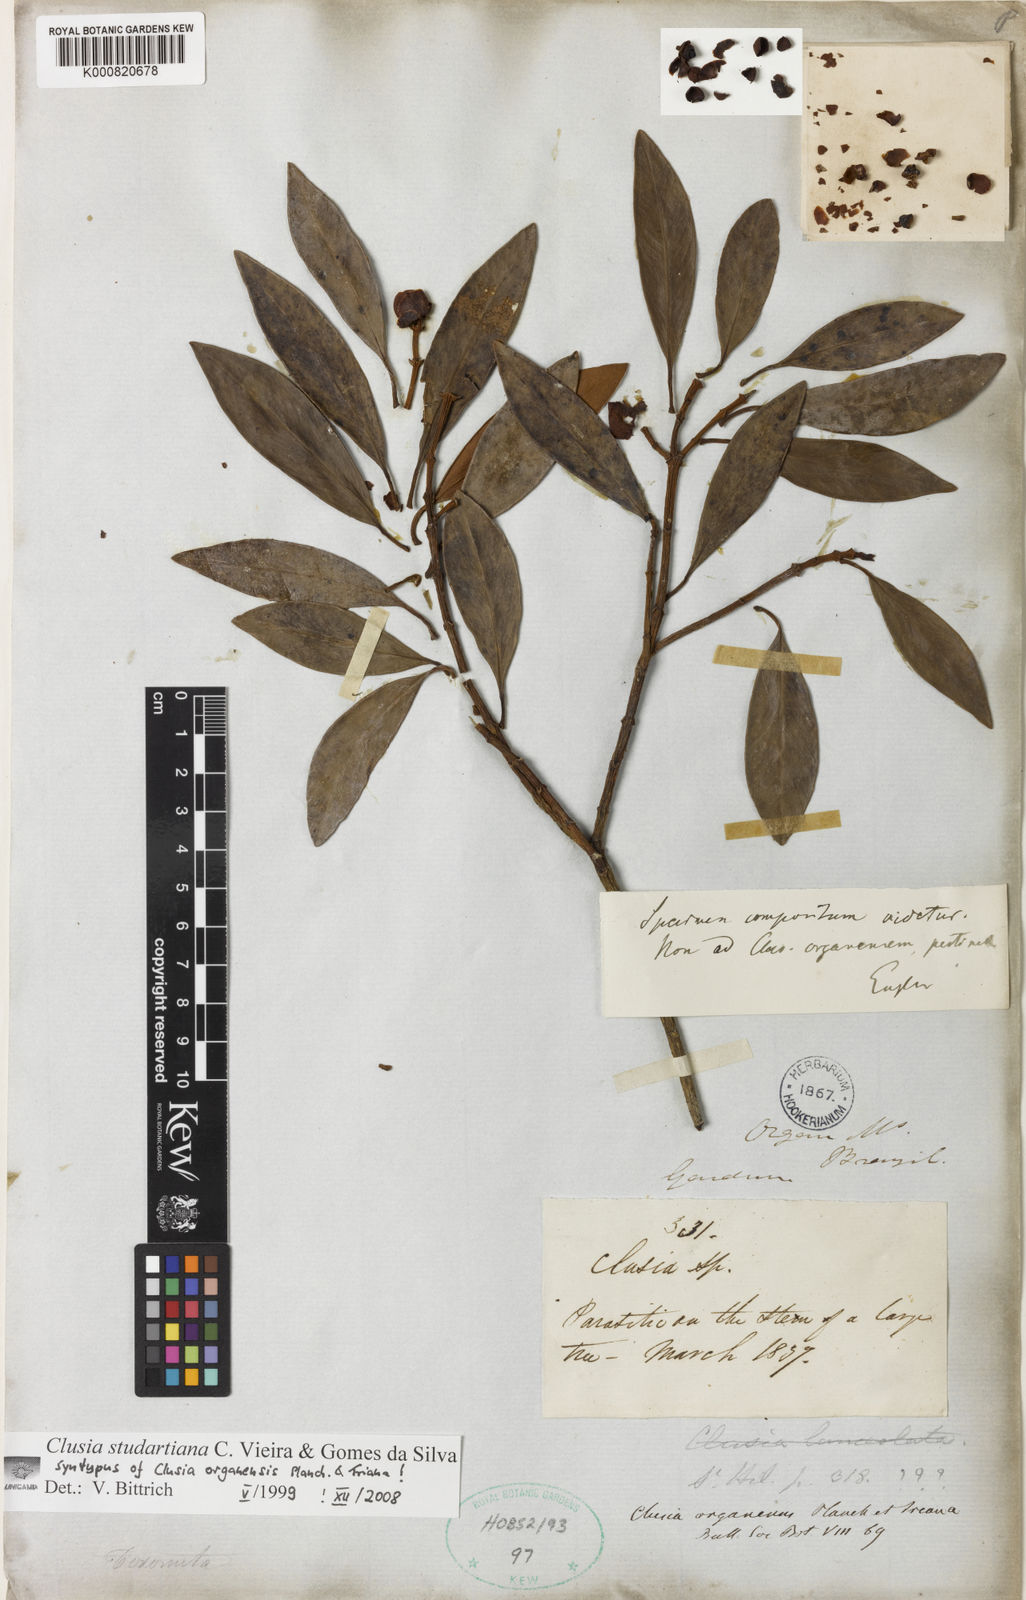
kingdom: Plantae
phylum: Tracheophyta
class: Magnoliopsida
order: Malpighiales
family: Clusiaceae
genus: Clusia
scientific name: Clusia studartiana
